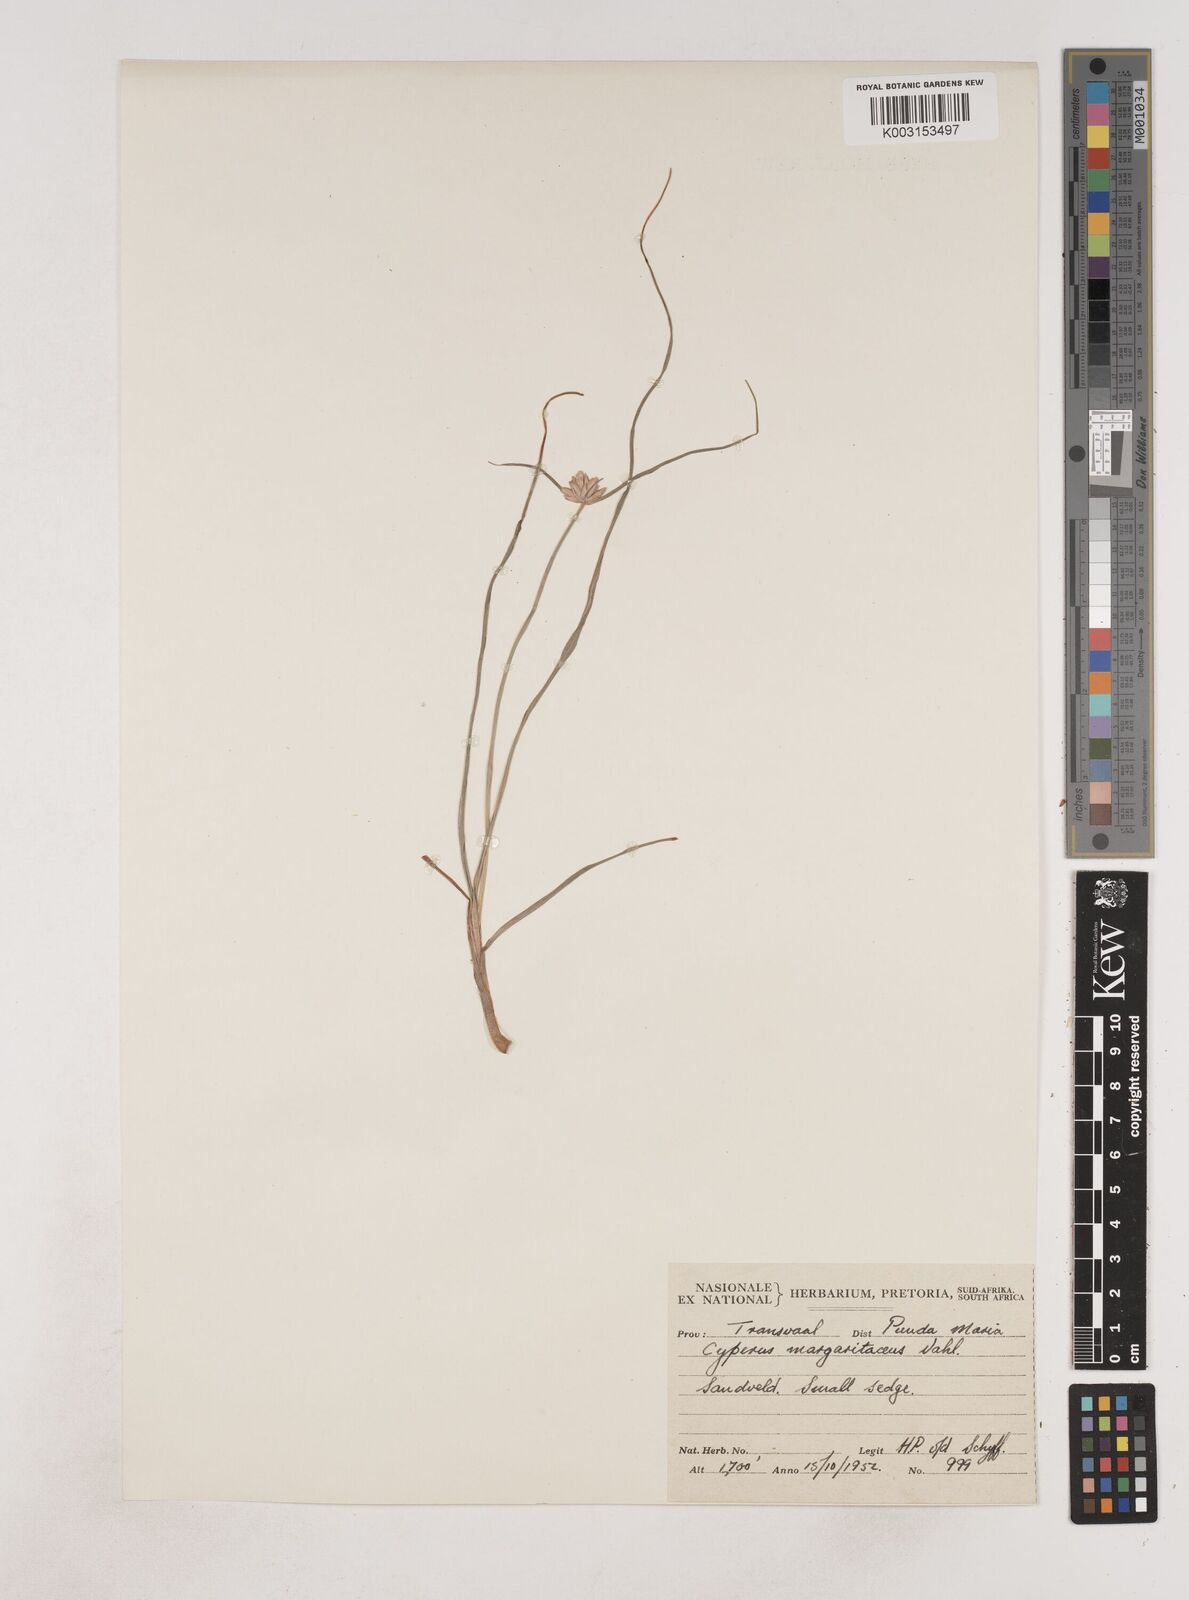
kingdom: Plantae
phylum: Tracheophyta
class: Liliopsida
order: Poales
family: Cyperaceae
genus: Cyperus
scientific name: Cyperus margaritaceus
